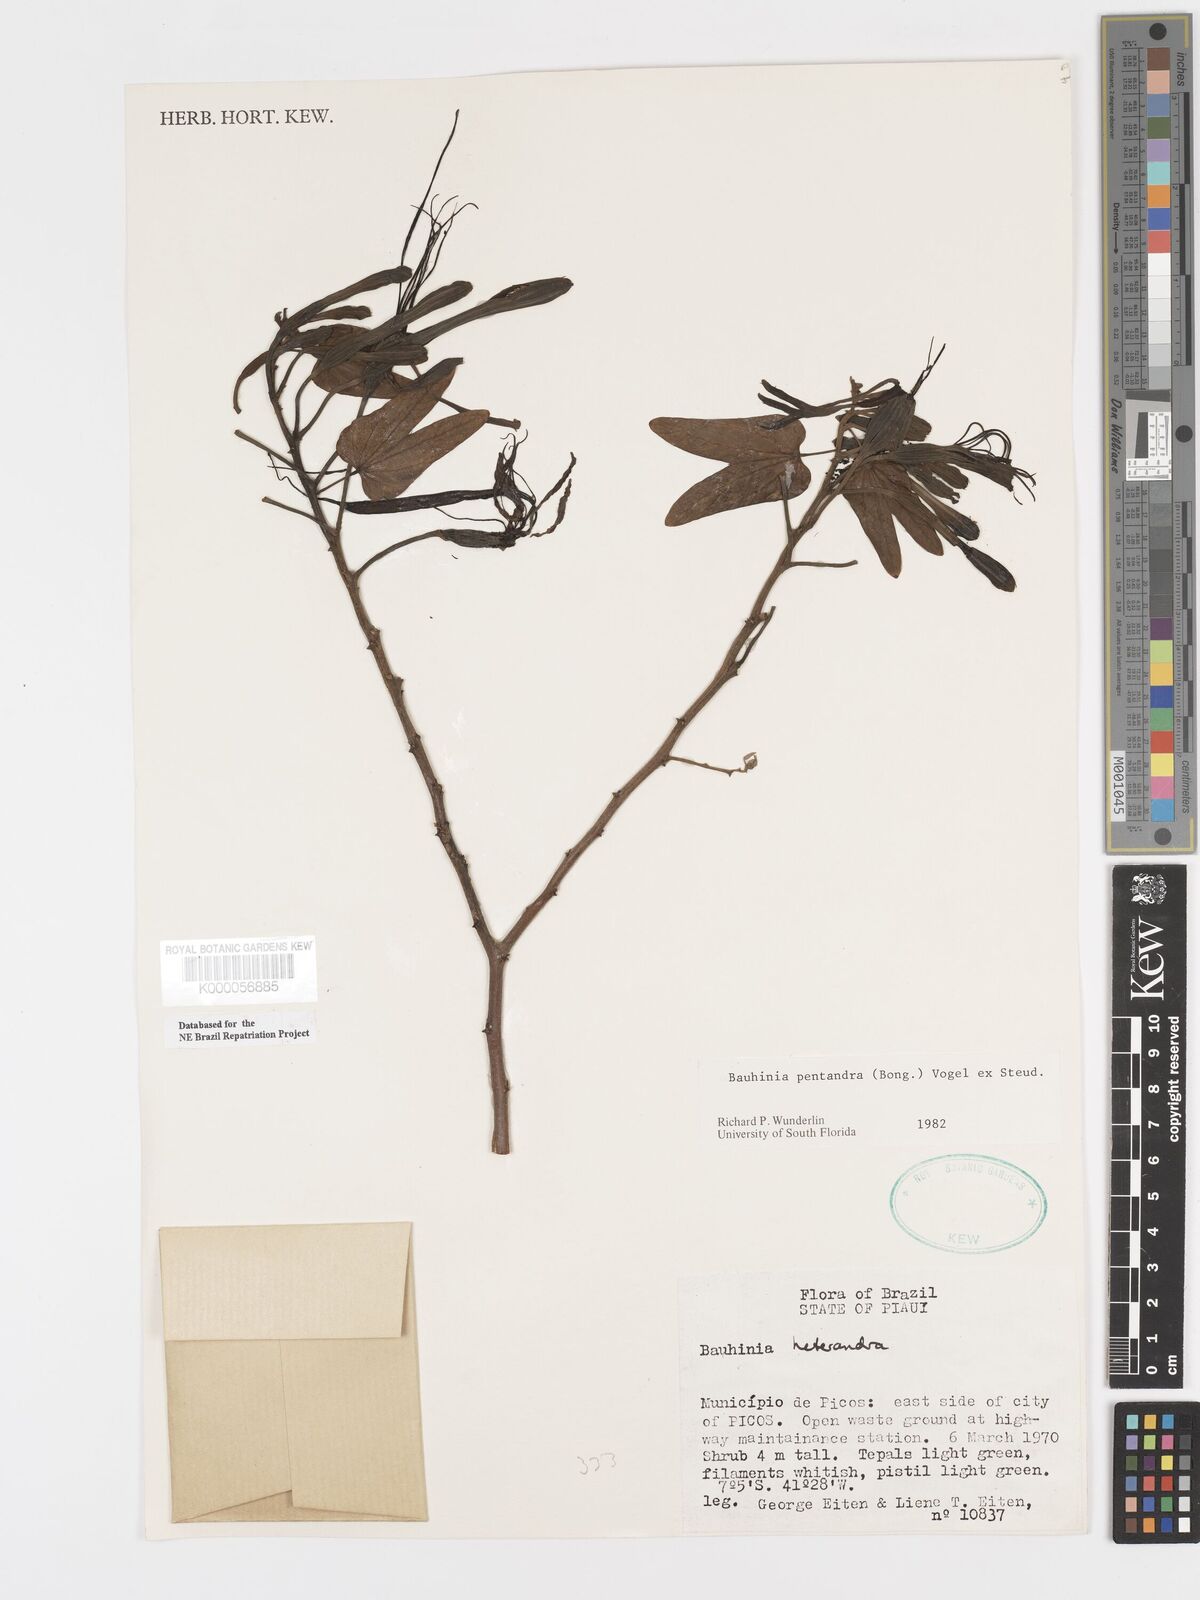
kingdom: Plantae
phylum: Tracheophyta
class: Magnoliopsida
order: Fabales
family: Fabaceae
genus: Bauhinia
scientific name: Bauhinia
